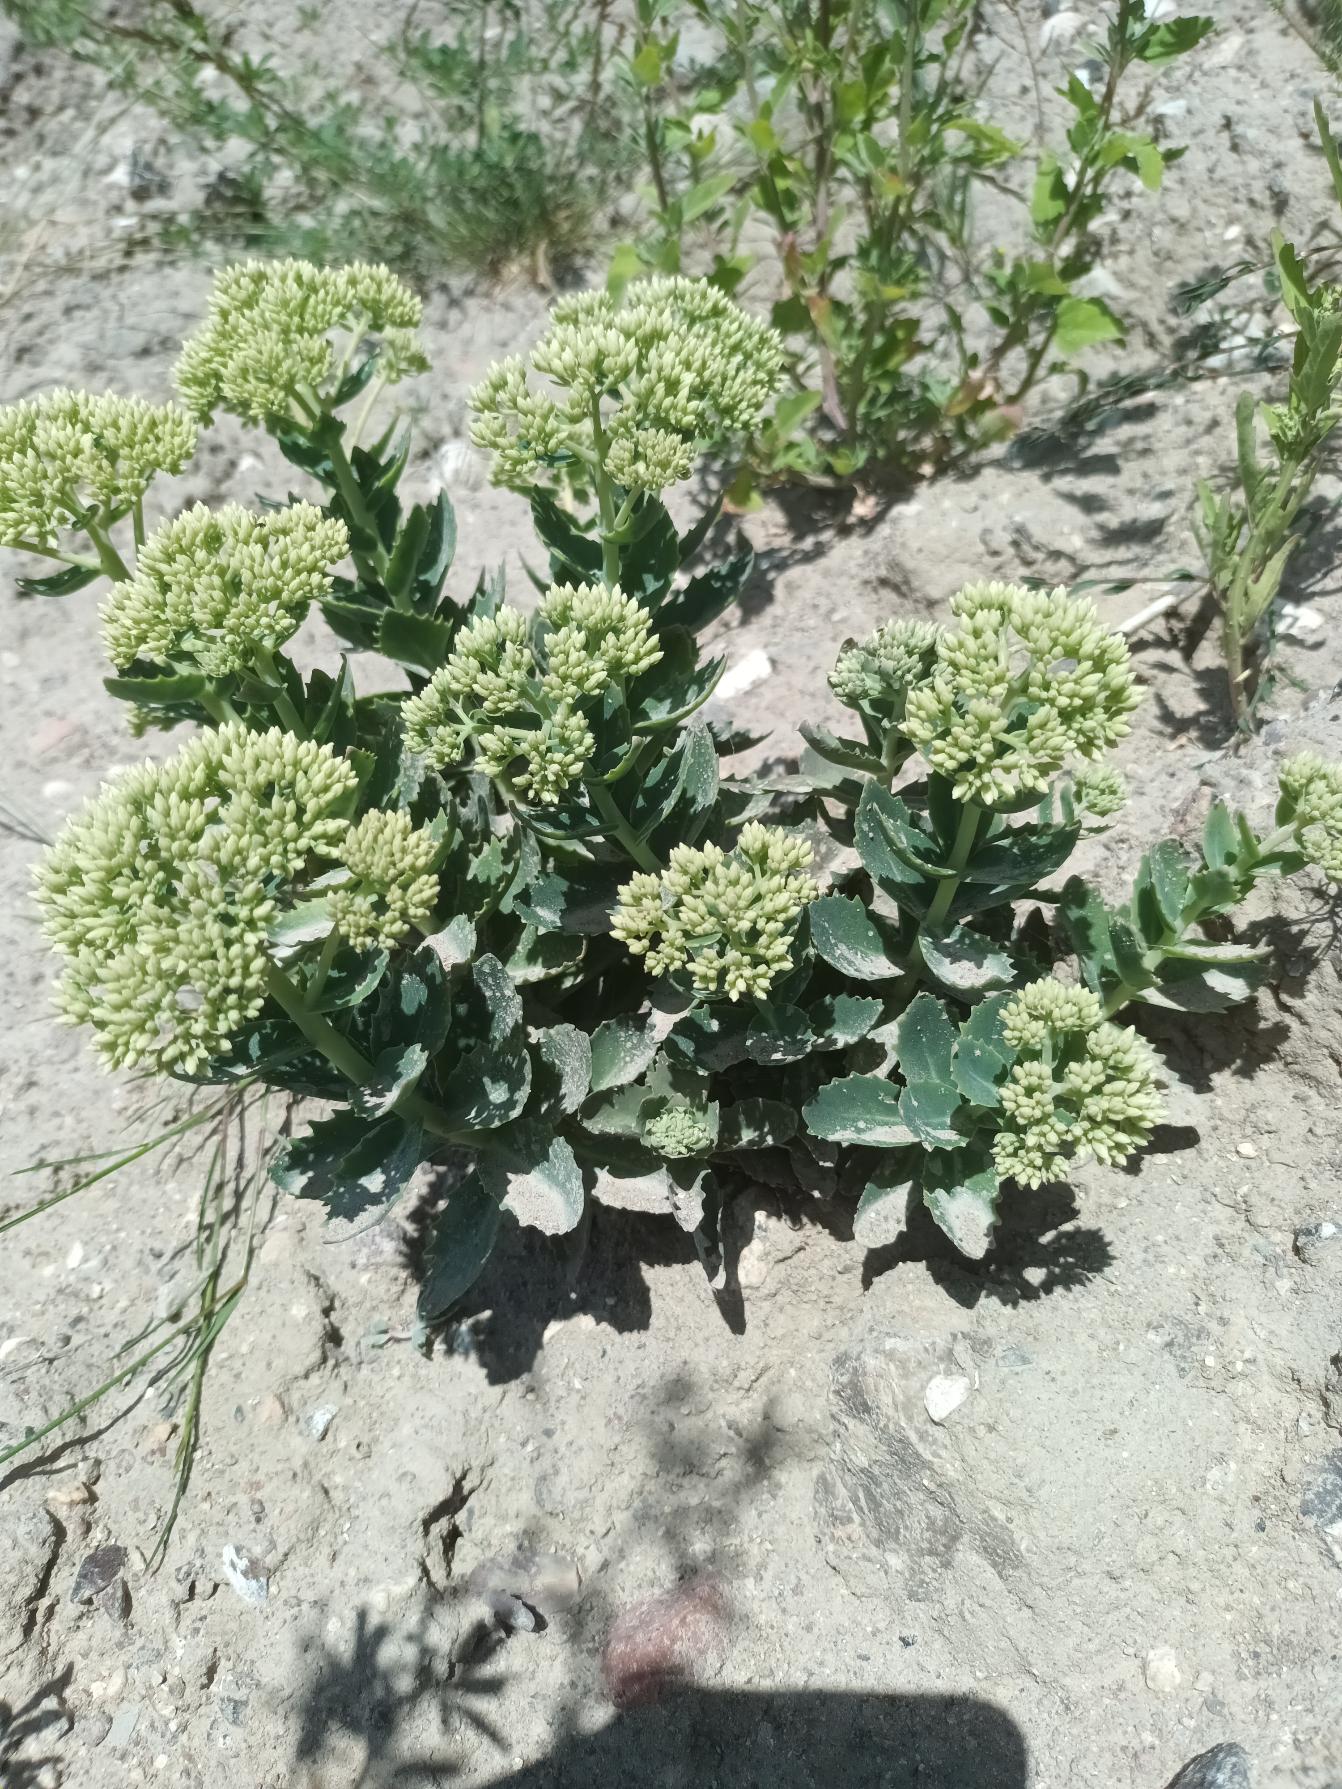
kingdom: Plantae
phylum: Tracheophyta
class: Magnoliopsida
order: Saxifragales
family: Crassulaceae
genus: Hylotelephium
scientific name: Hylotelephium spectabile
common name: Kinesisk sankthansurt
